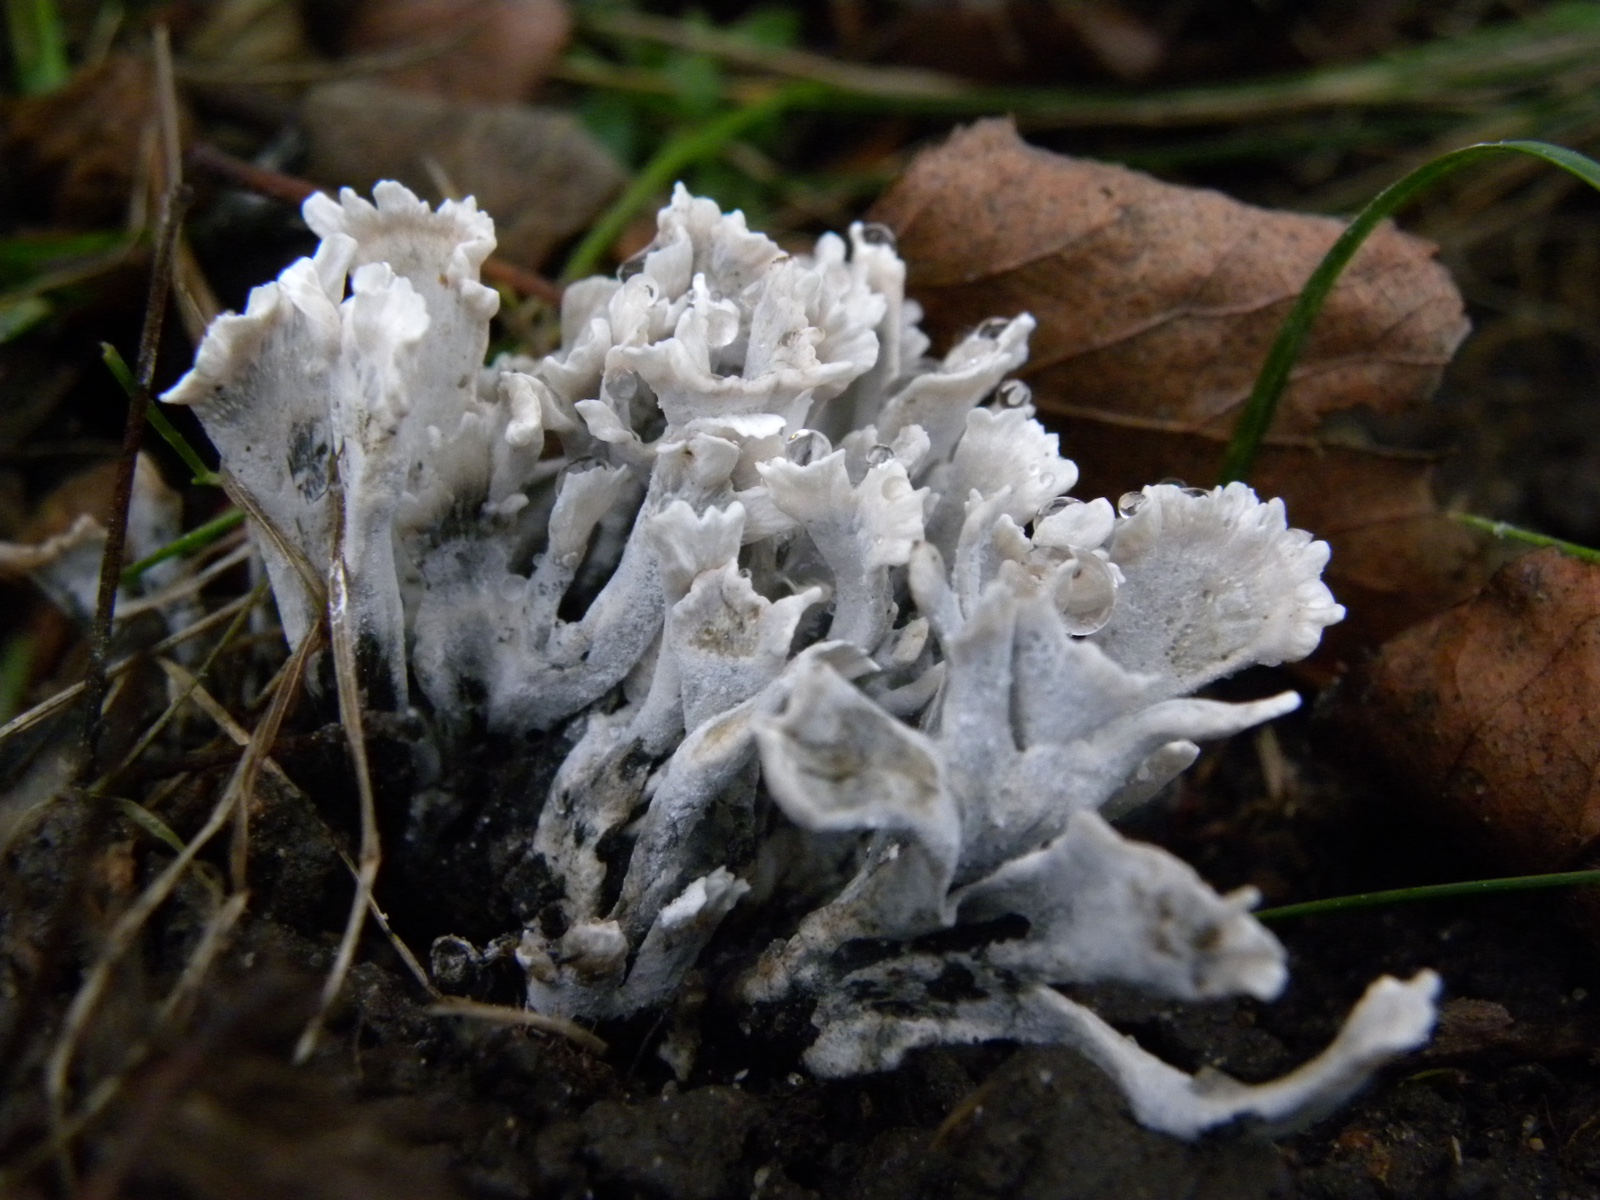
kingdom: Fungi
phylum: Ascomycota
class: Sordariomycetes
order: Xylariales
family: Xylariaceae
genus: Xylaria
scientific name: Xylaria hypoxylon
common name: grenet stødsvamp
